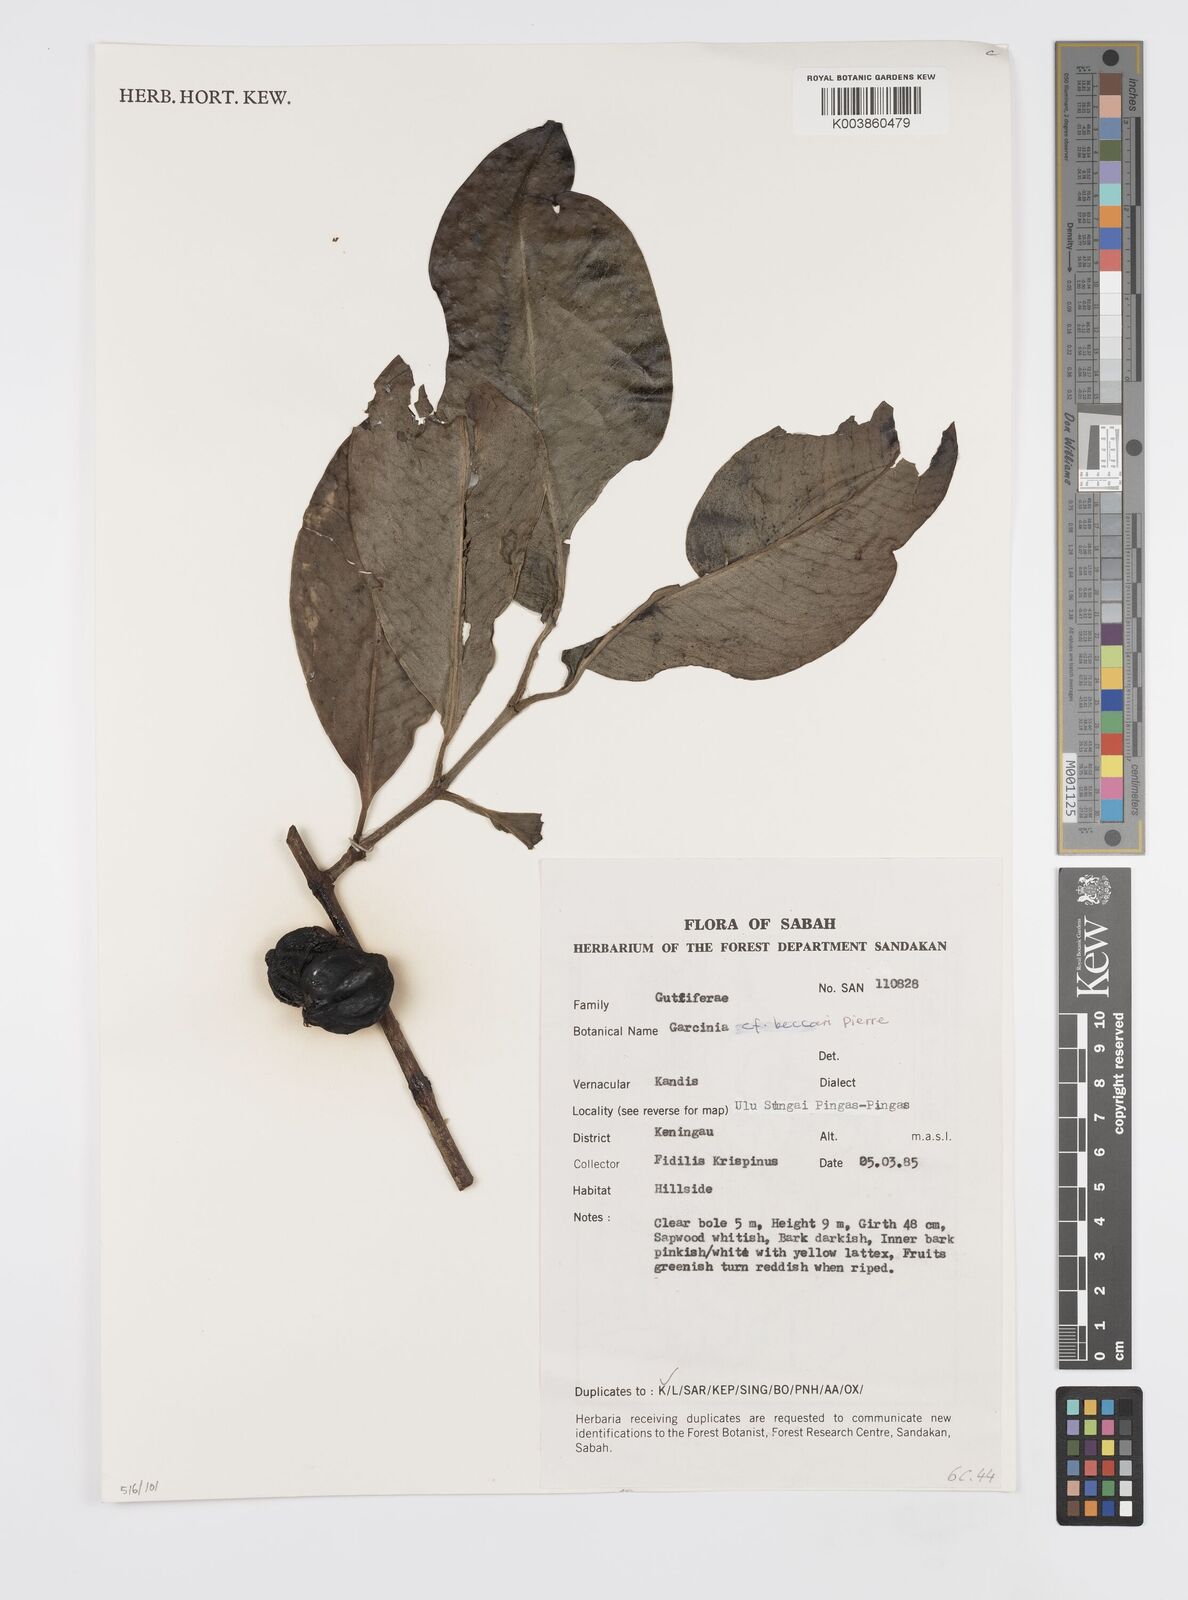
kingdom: Plantae
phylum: Tracheophyta
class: Magnoliopsida
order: Malpighiales
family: Clusiaceae
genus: Garcinia
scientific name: Garcinia beccarii
